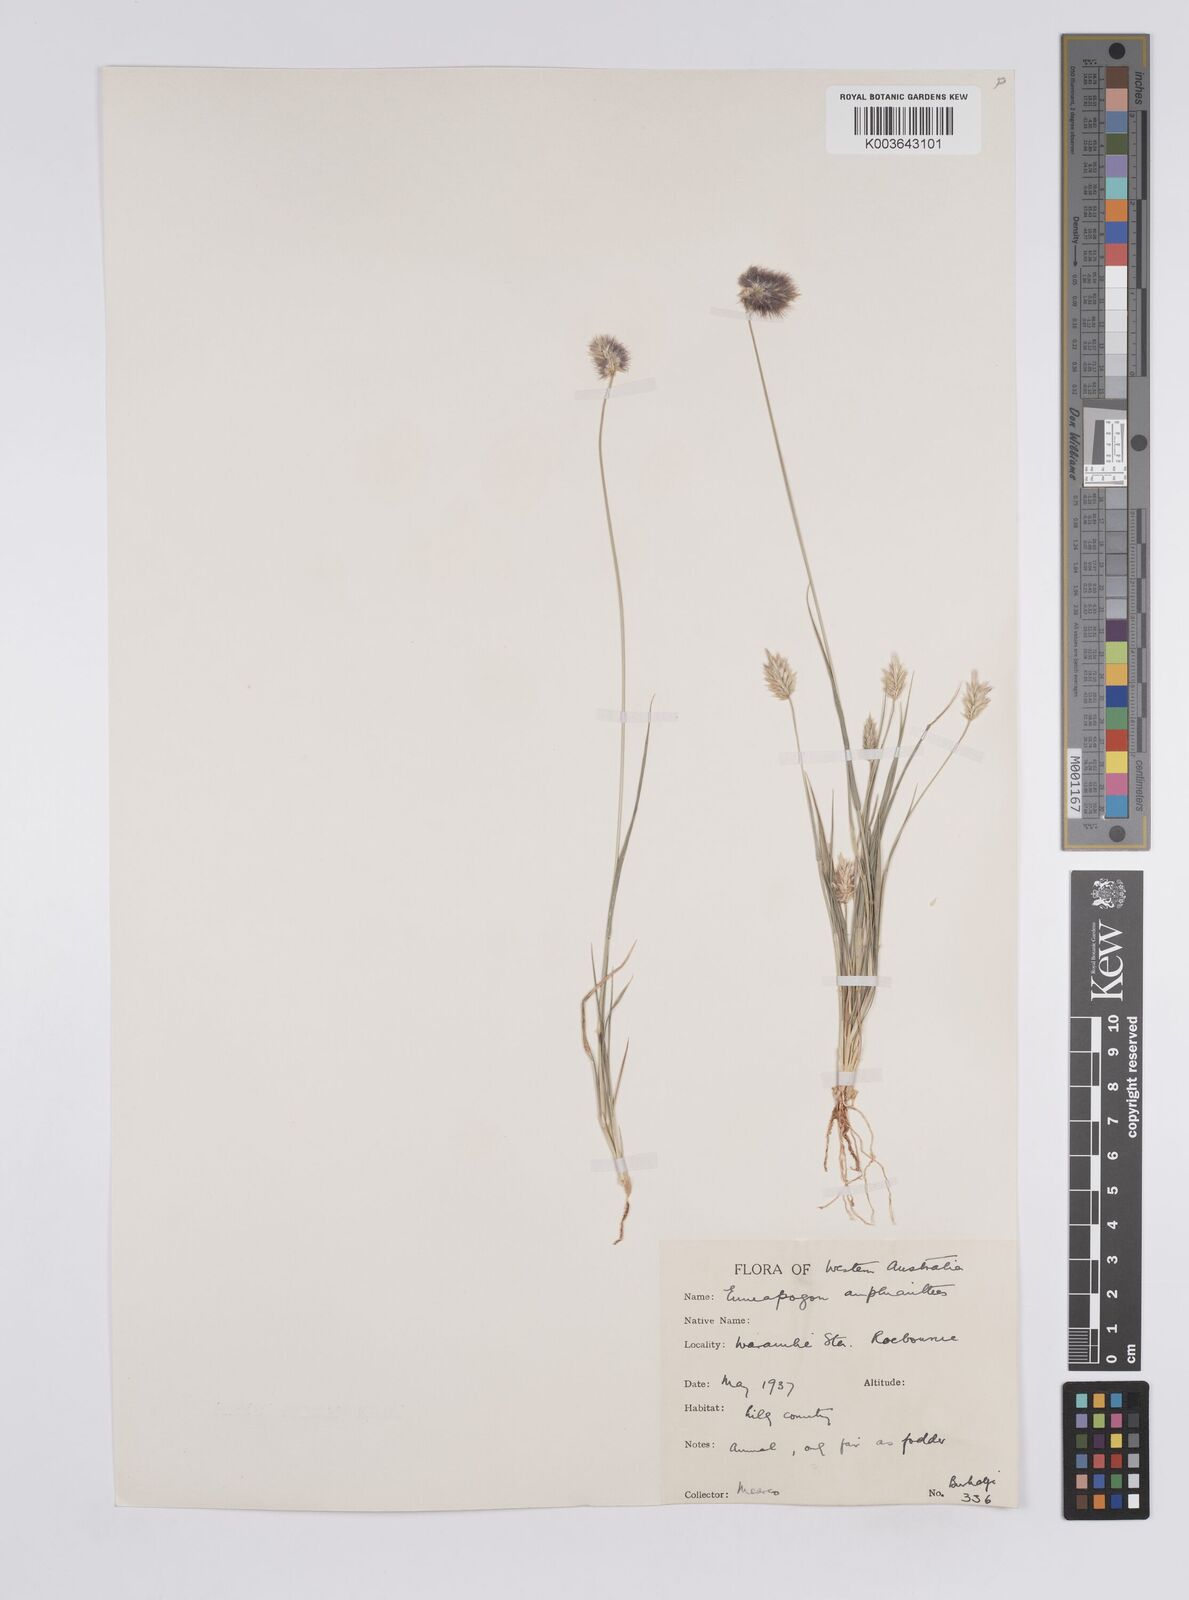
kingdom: Plantae
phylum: Tracheophyta
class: Liliopsida
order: Poales
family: Poaceae
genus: Enneapogon
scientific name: Enneapogon caerulescens
